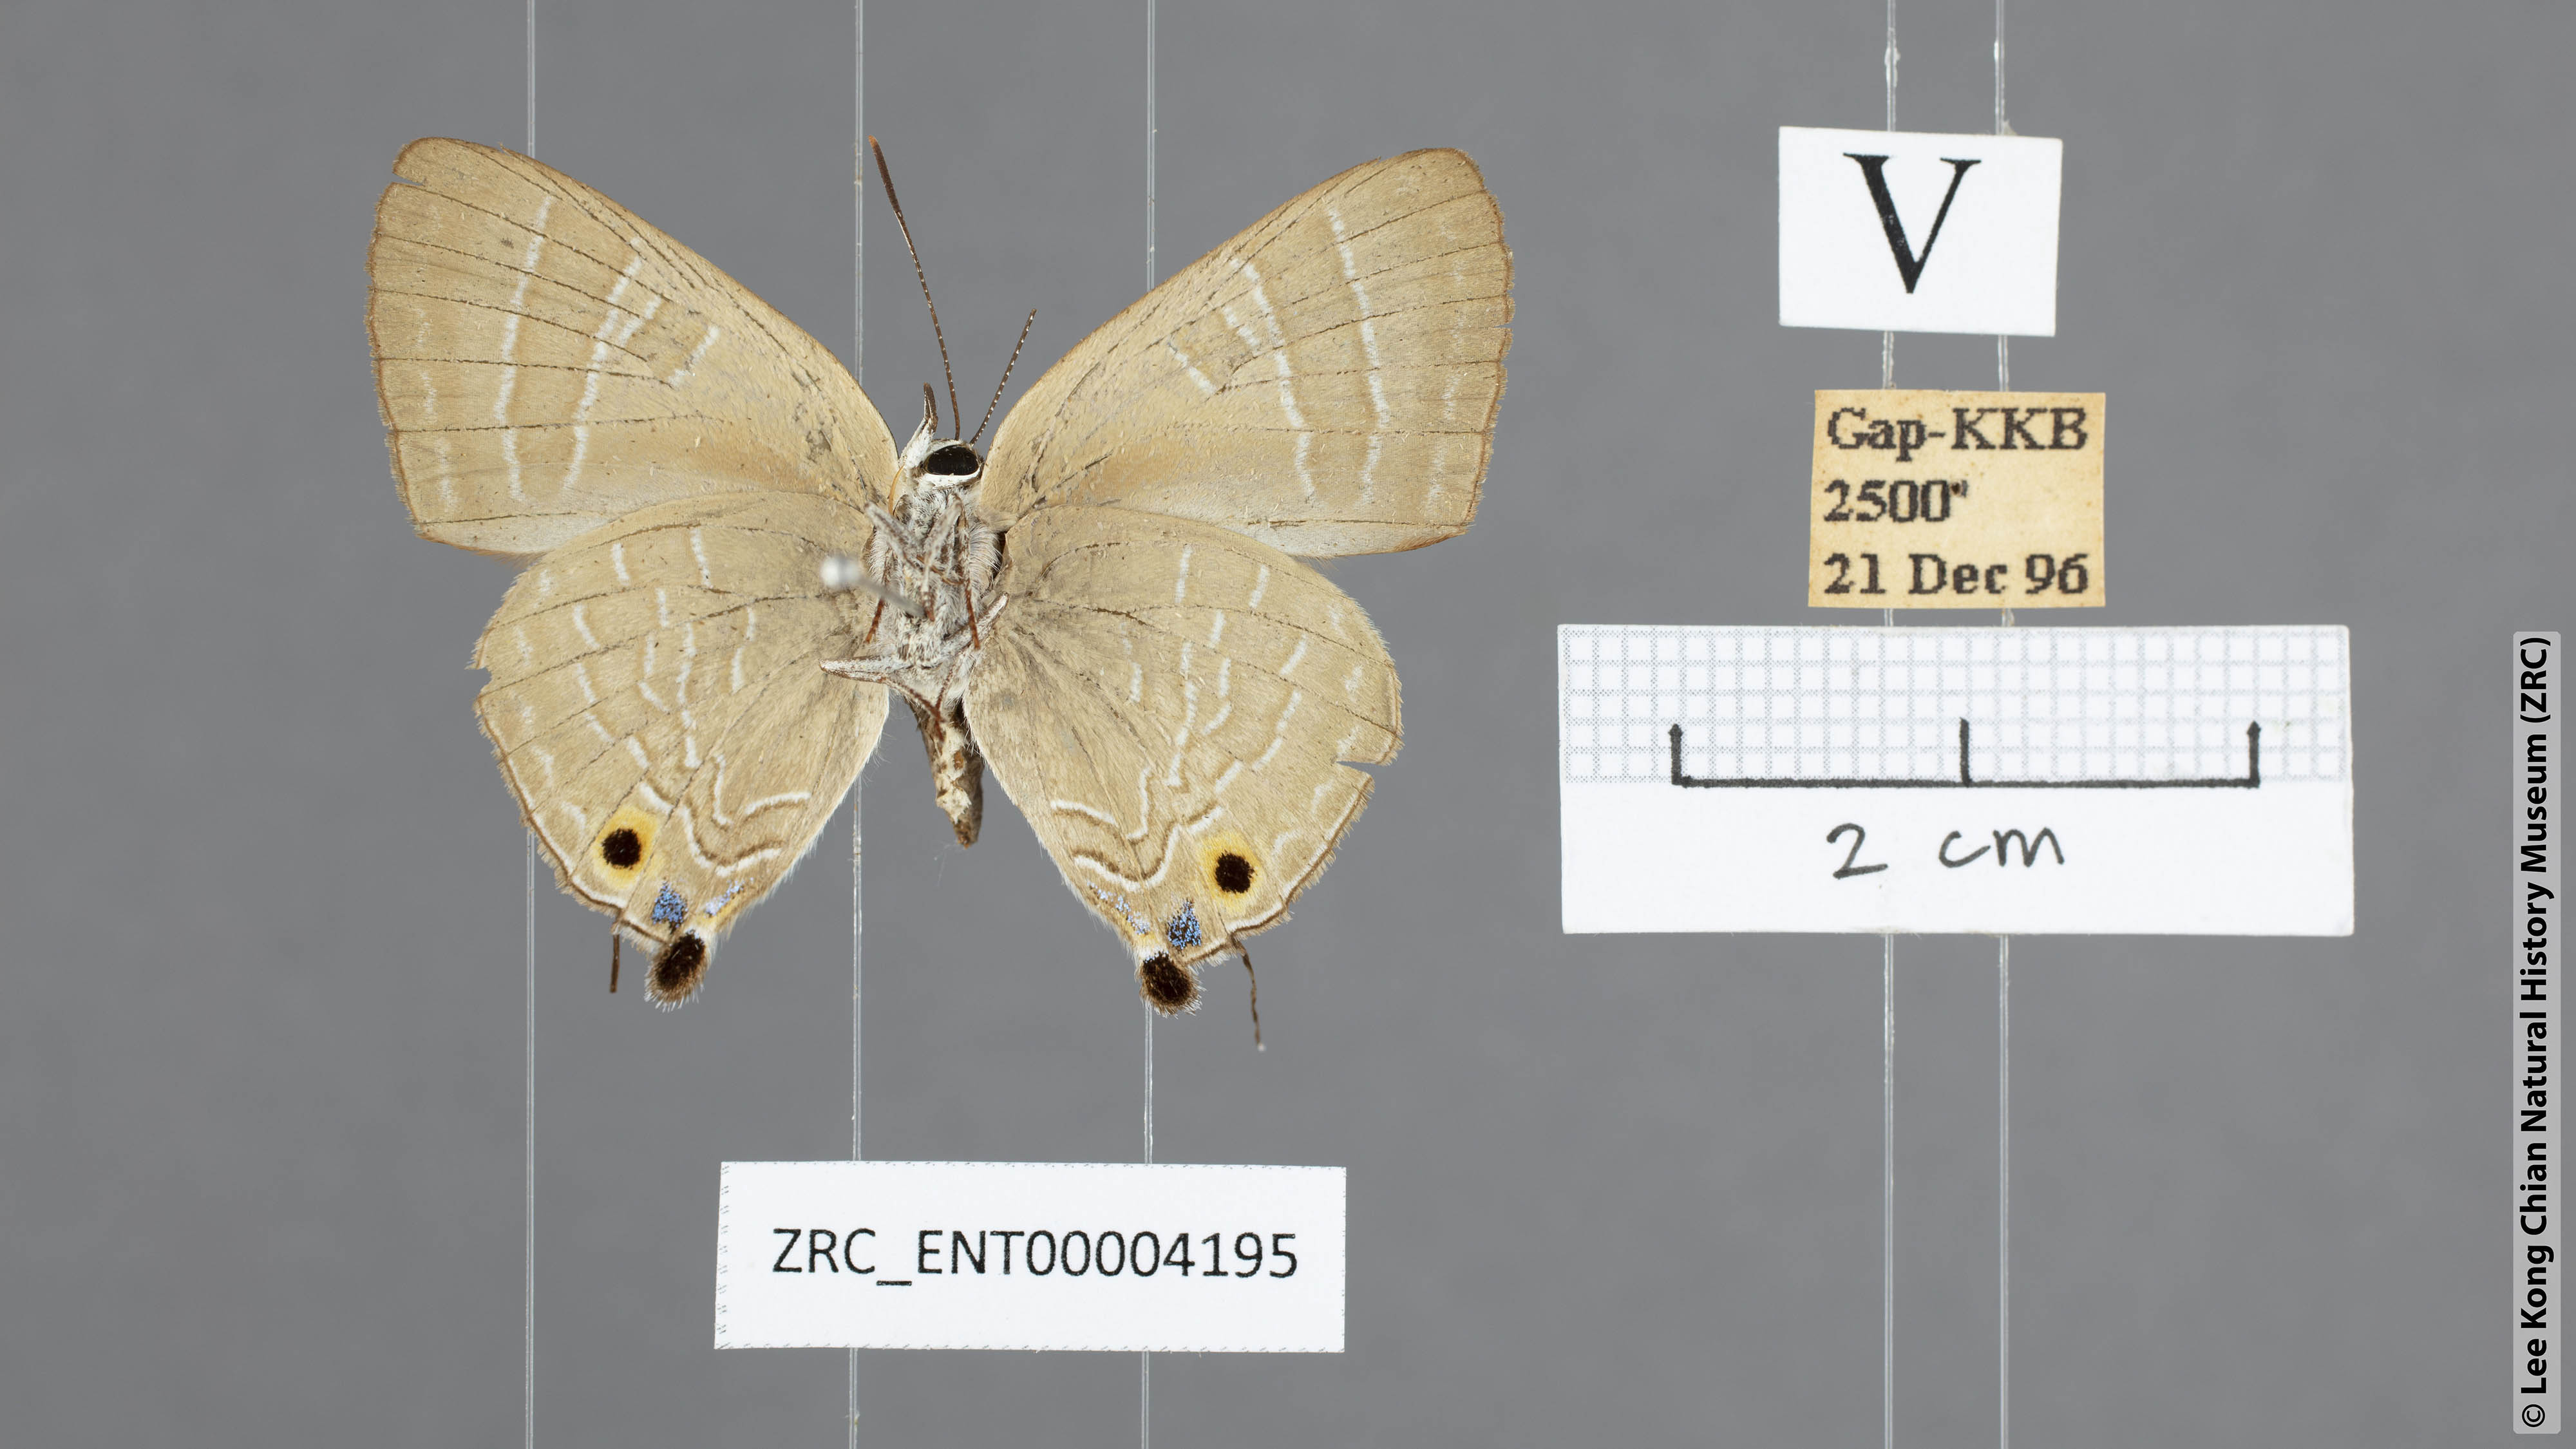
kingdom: Animalia
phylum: Arthropoda
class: Insecta
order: Lepidoptera
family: Lycaenidae
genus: Deudorix
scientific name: Deudorix epijarbas
